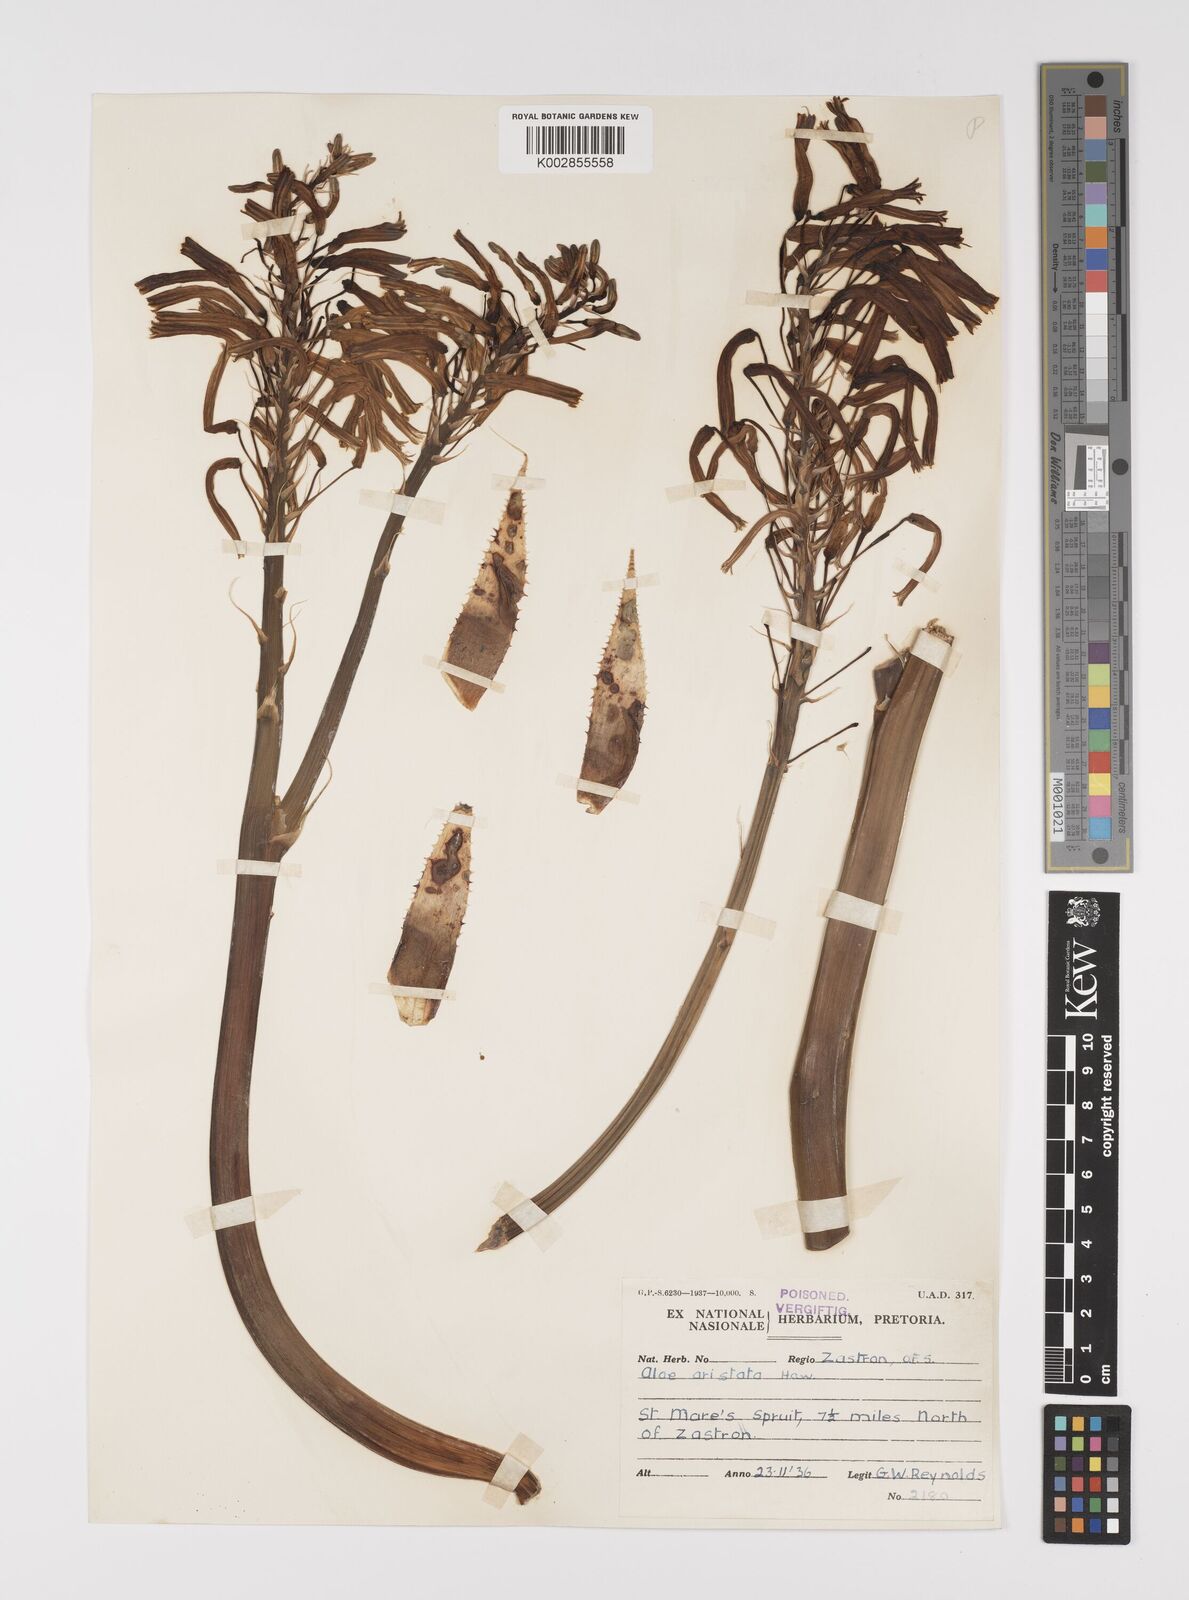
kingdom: Plantae
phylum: Tracheophyta
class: Liliopsida
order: Asparagales
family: Asphodelaceae
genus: Aristaloe
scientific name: Aristaloe aristata
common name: Guinea-fowl aloe
